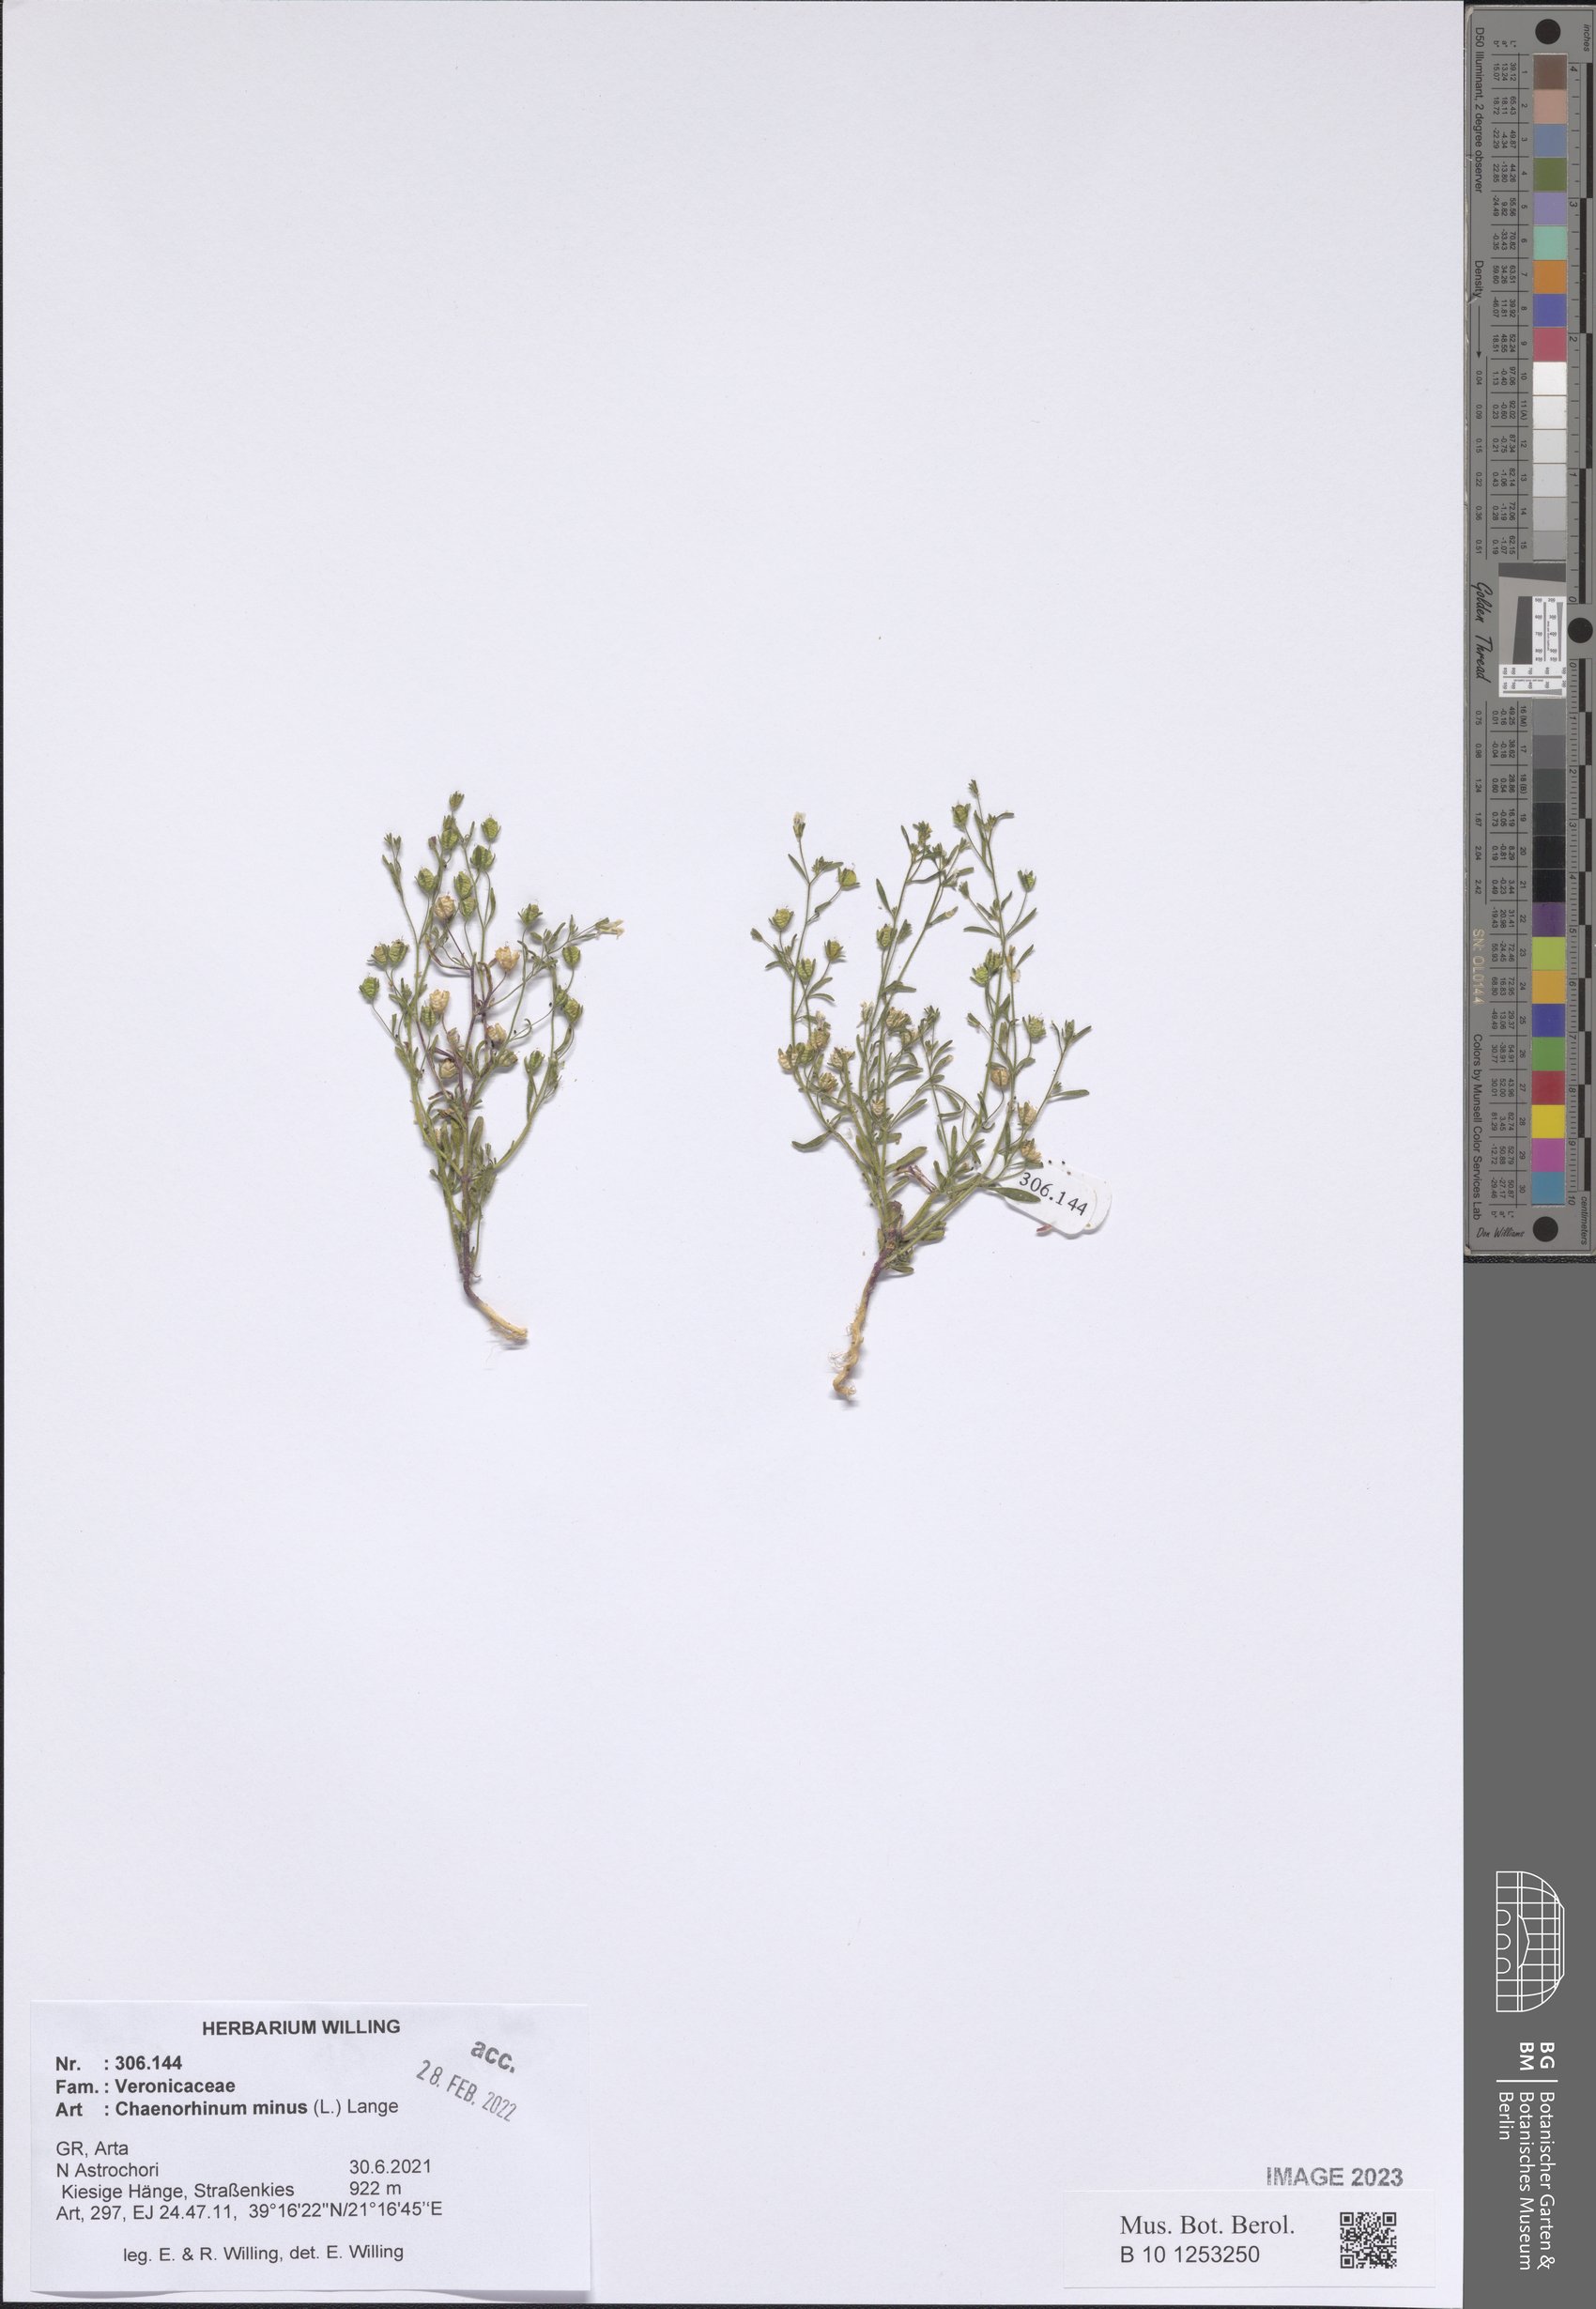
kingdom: Plantae
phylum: Tracheophyta
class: Magnoliopsida
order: Lamiales
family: Plantaginaceae
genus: Chaenorhinum
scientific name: Chaenorhinum minus
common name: Dwarf snapdragon
